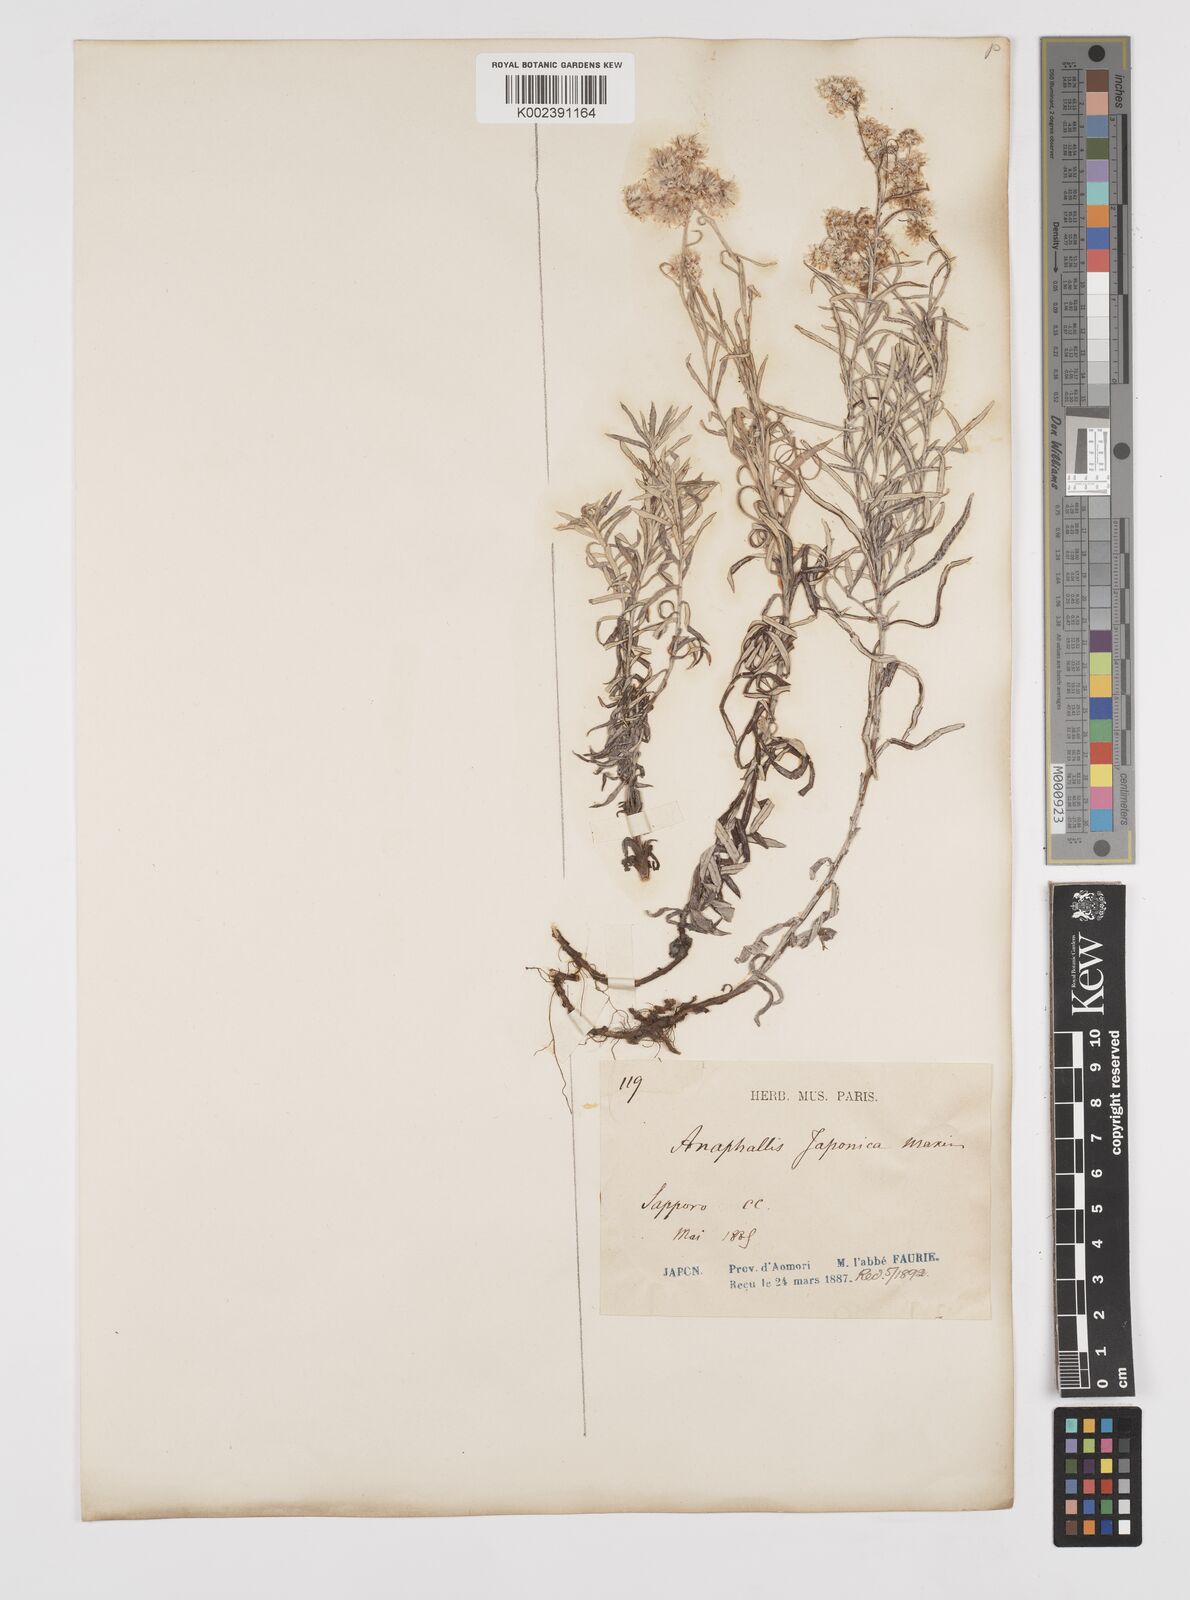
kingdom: Plantae
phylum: Tracheophyta
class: Magnoliopsida
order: Asterales
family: Asteraceae
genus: Anaphalis
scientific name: Anaphalis margaritacea
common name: Pearly everlasting
